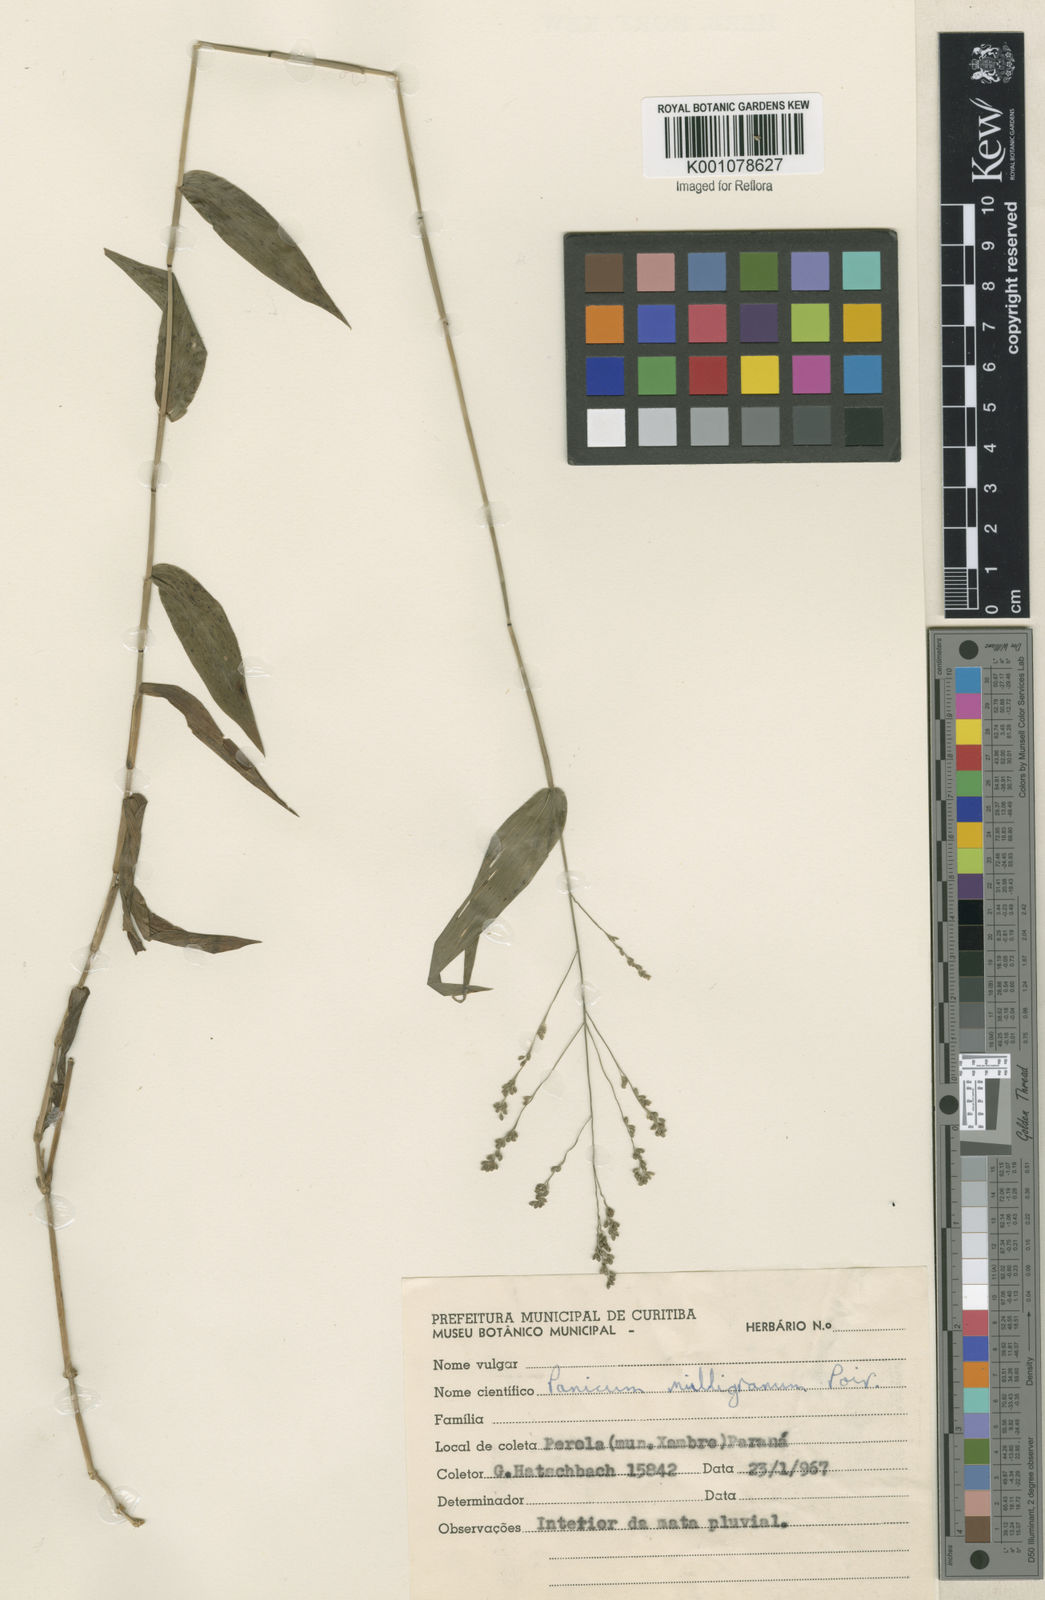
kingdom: Plantae
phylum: Tracheophyta
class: Liliopsida
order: Poales
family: Poaceae
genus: Panicum
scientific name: Panicum sellowii
